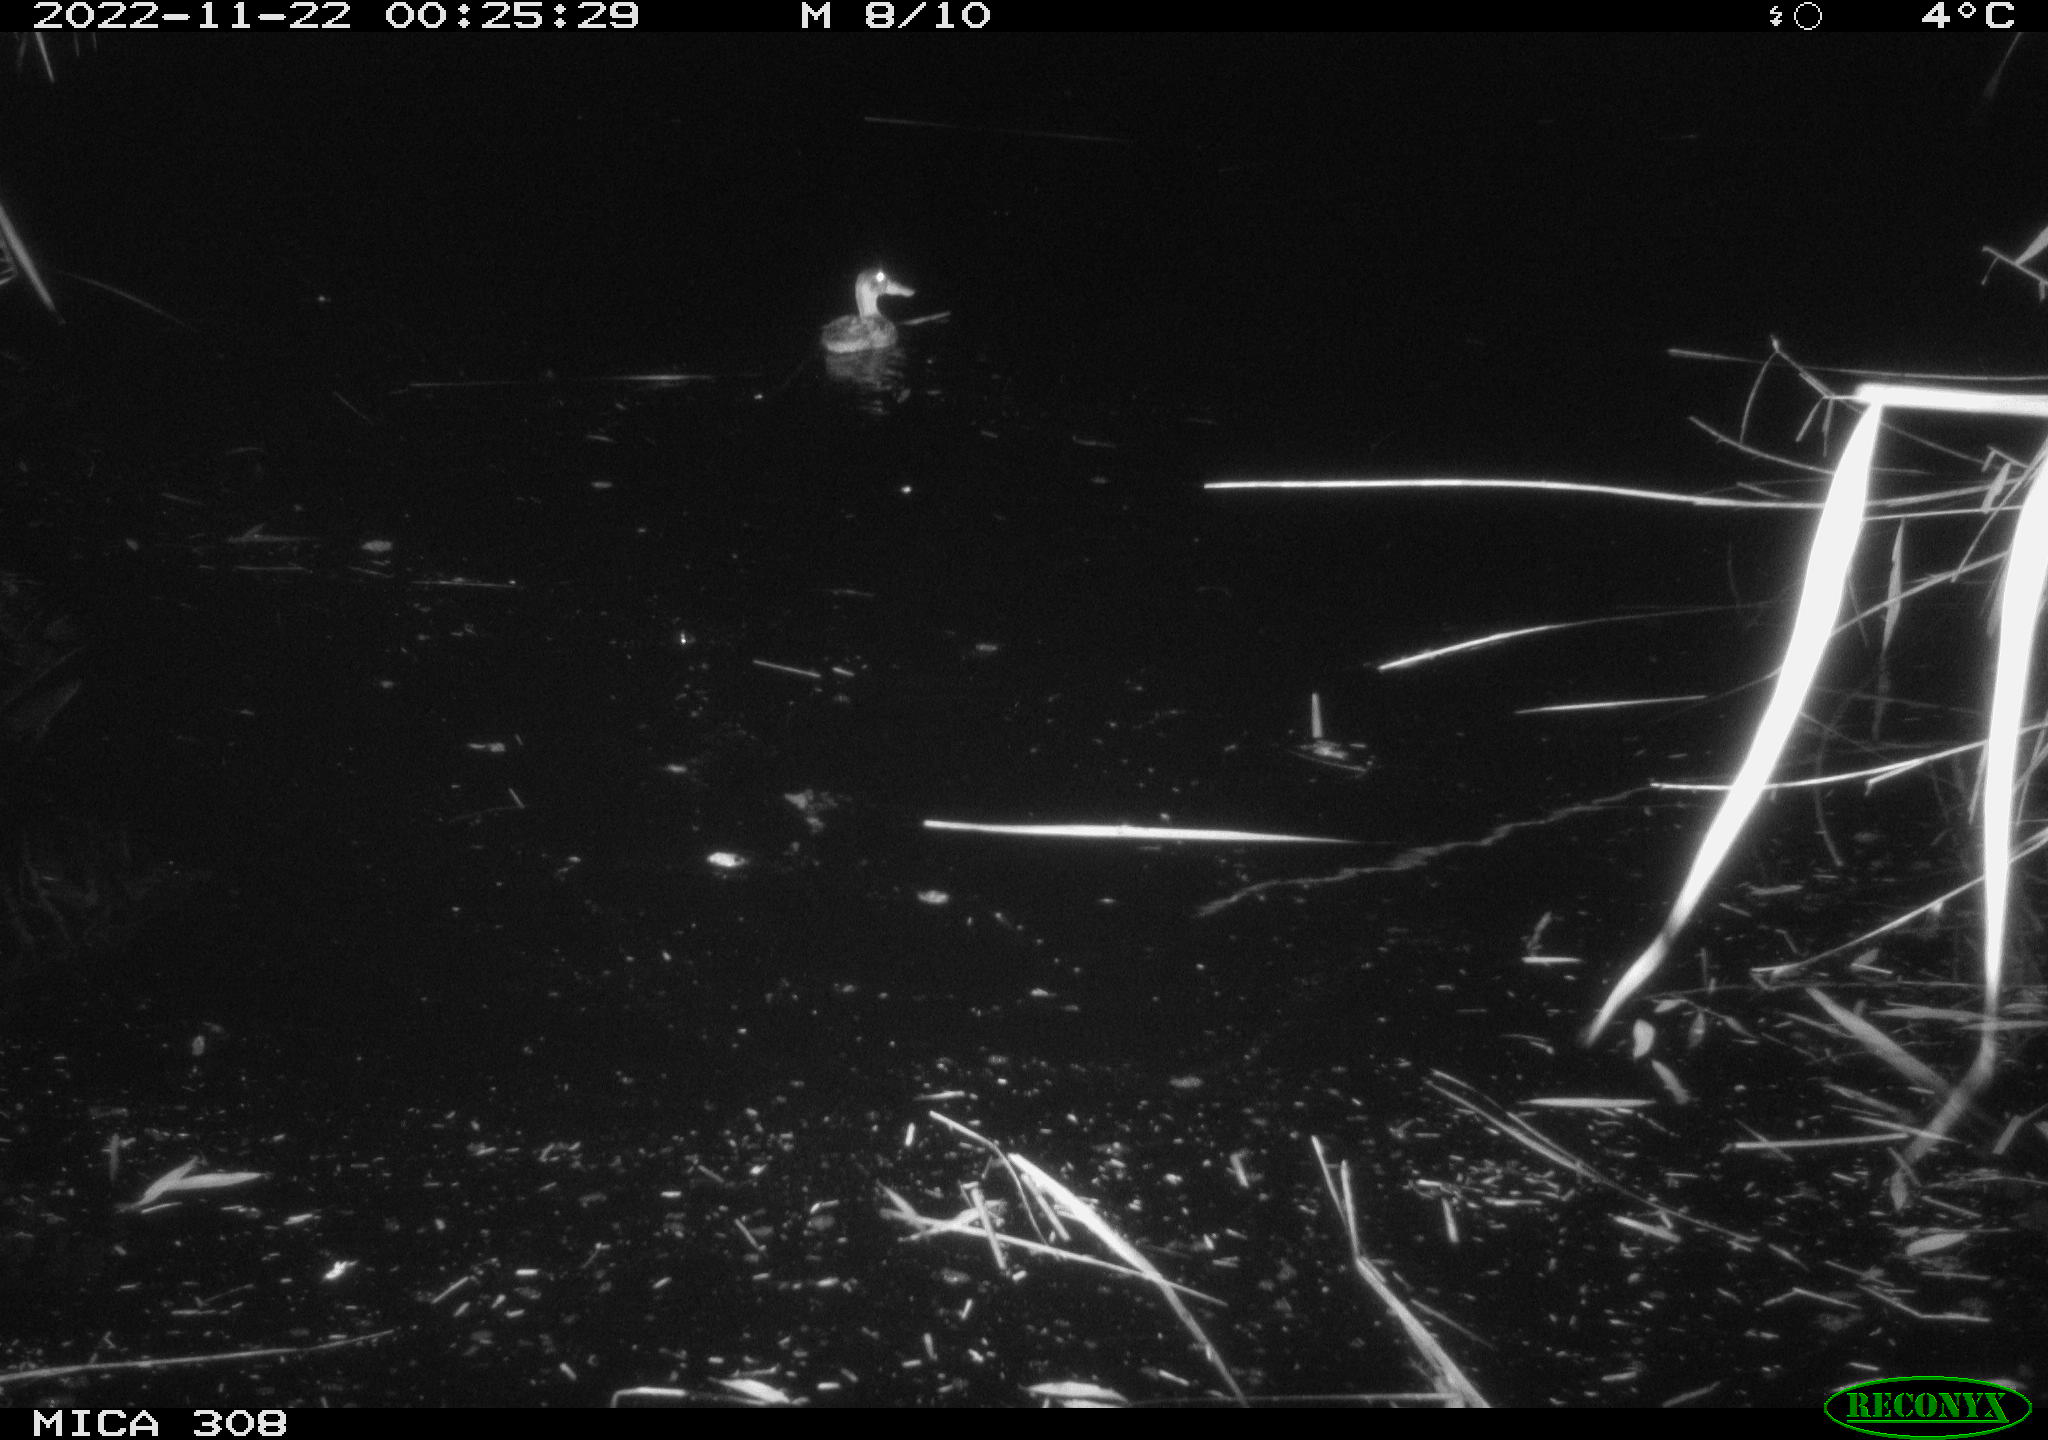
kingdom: Animalia
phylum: Chordata
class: Aves
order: Anseriformes
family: Anatidae
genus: Anas
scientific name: Anas
